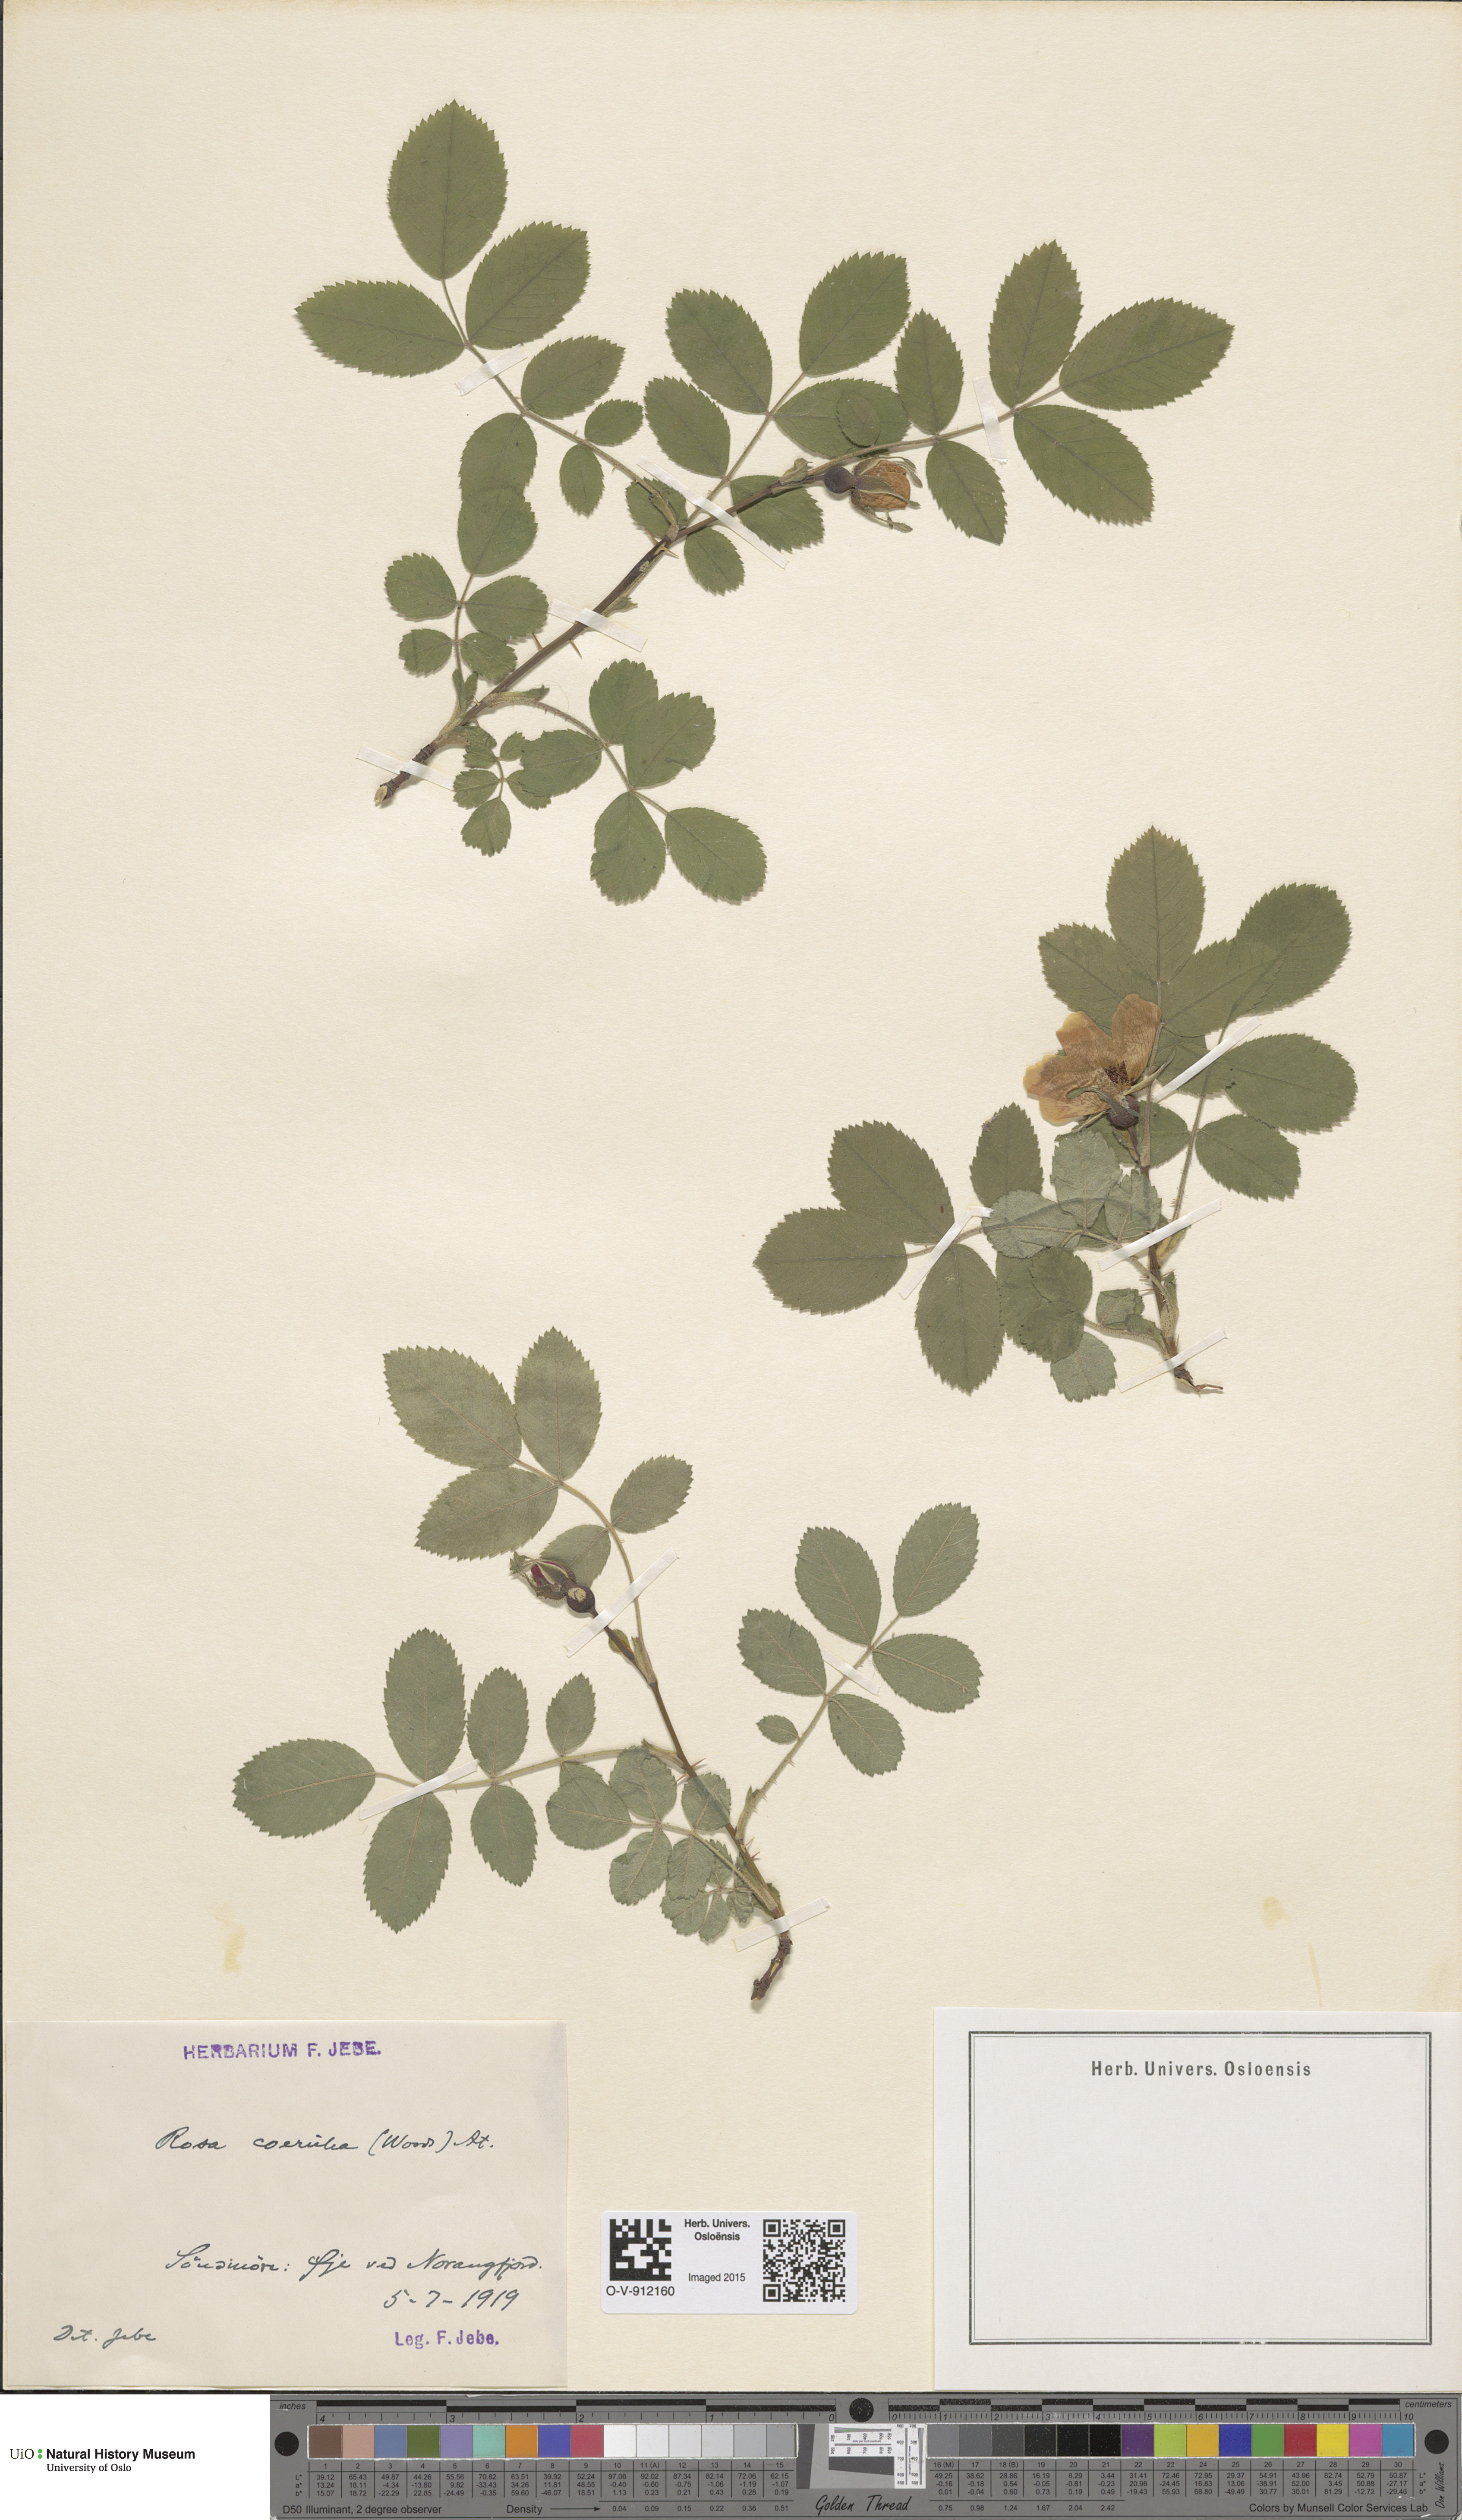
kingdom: Plantae
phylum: Tracheophyta
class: Magnoliopsida
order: Rosales
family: Rosaceae
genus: Rosa
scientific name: Rosa mollis
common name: Rose
